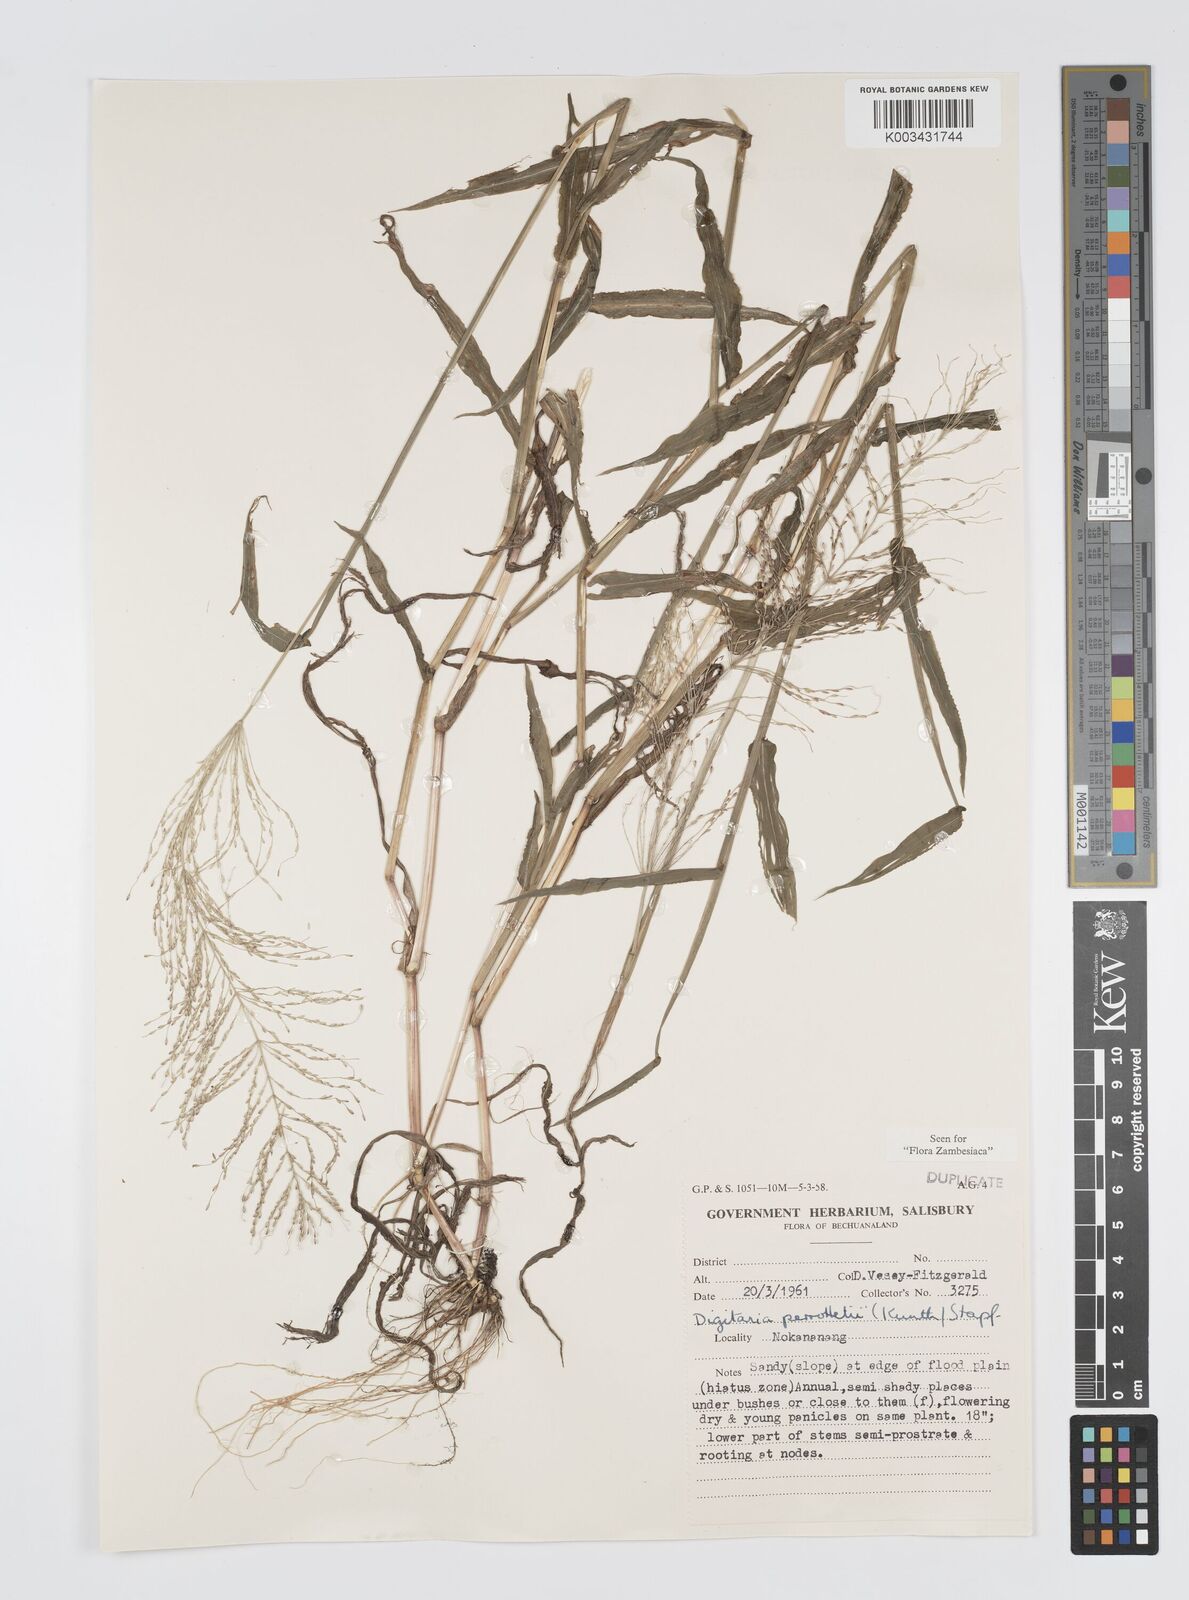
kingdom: Plantae
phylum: Tracheophyta
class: Liliopsida
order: Poales
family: Poaceae
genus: Digitaria
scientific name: Digitaria perrottetii
